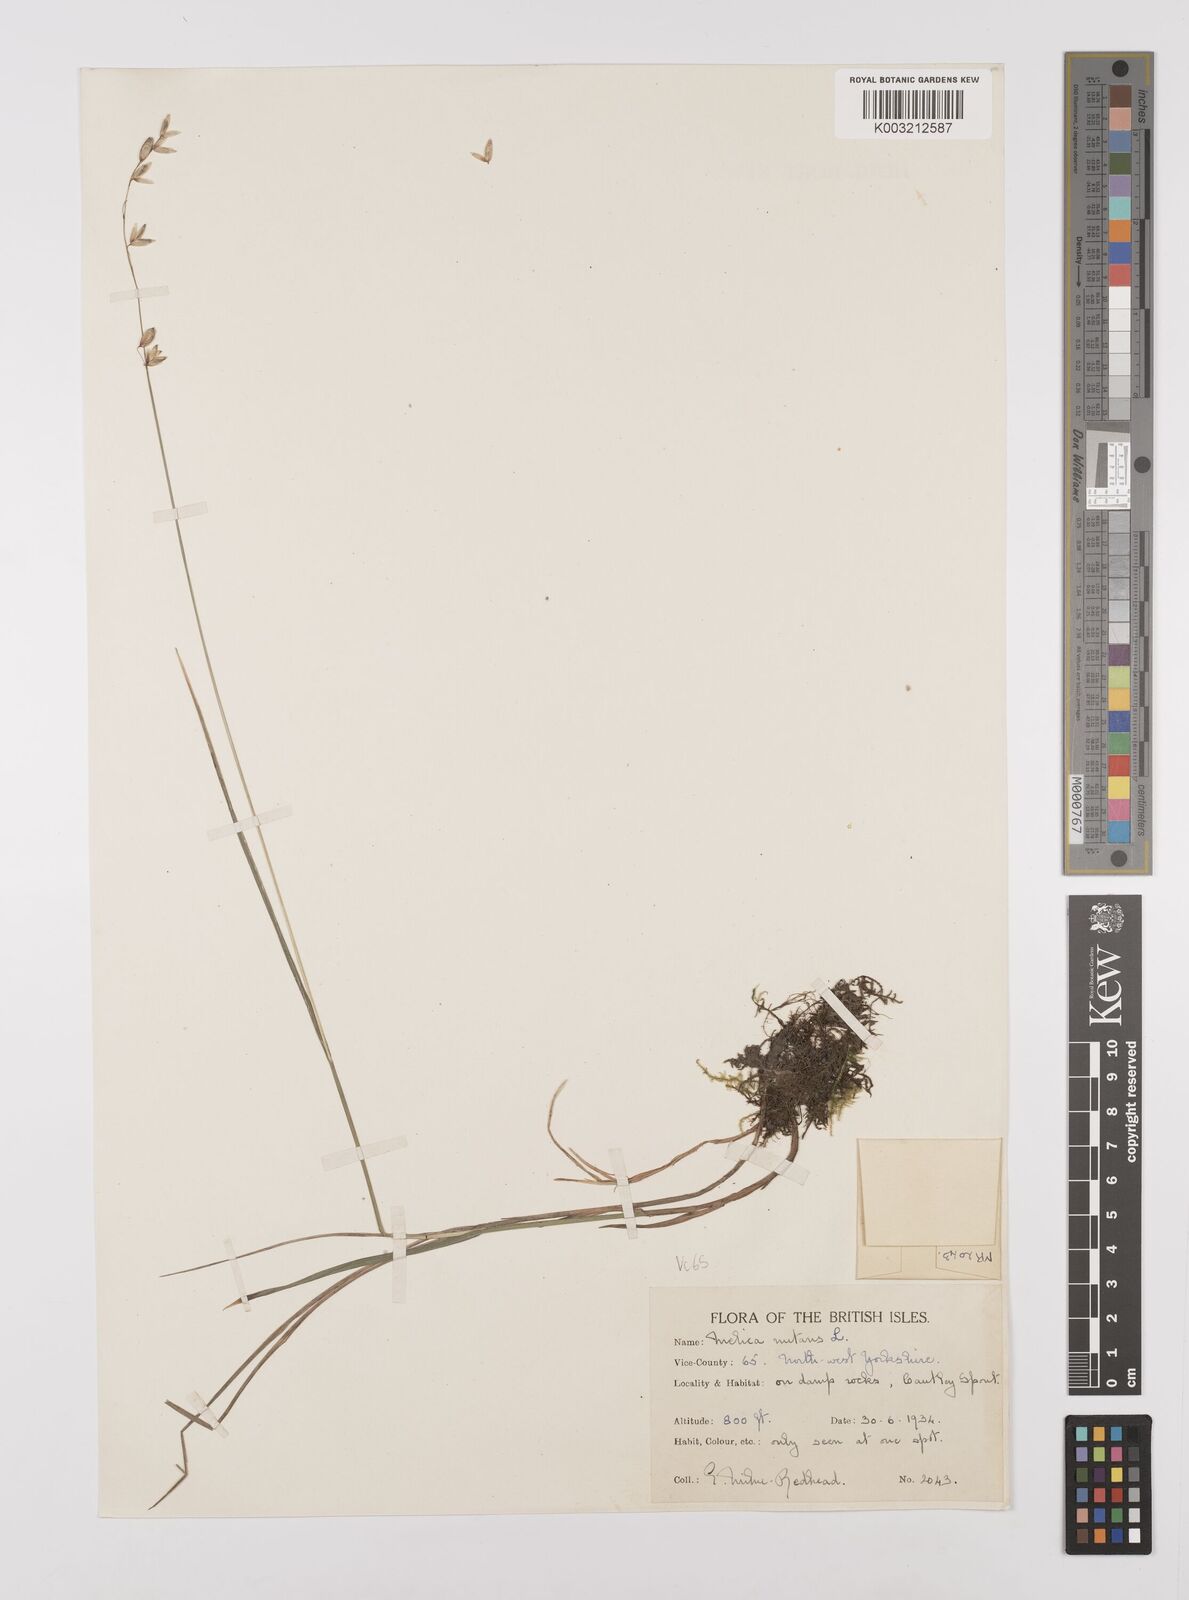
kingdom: Plantae
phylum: Tracheophyta
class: Liliopsida
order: Poales
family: Poaceae
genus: Melica
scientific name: Melica
